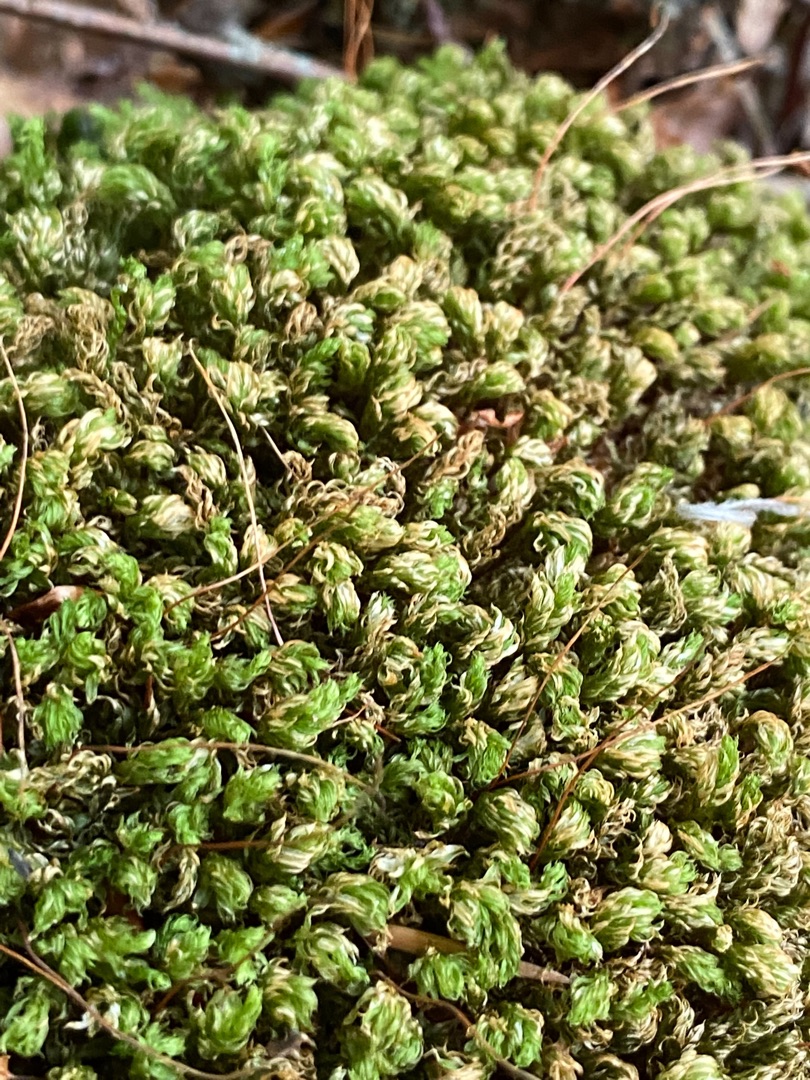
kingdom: Plantae
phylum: Bryophyta
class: Bryopsida
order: Bryales
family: Mniaceae
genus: Mnium
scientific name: Mnium hornum
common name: Brunfiltet stjernemos
